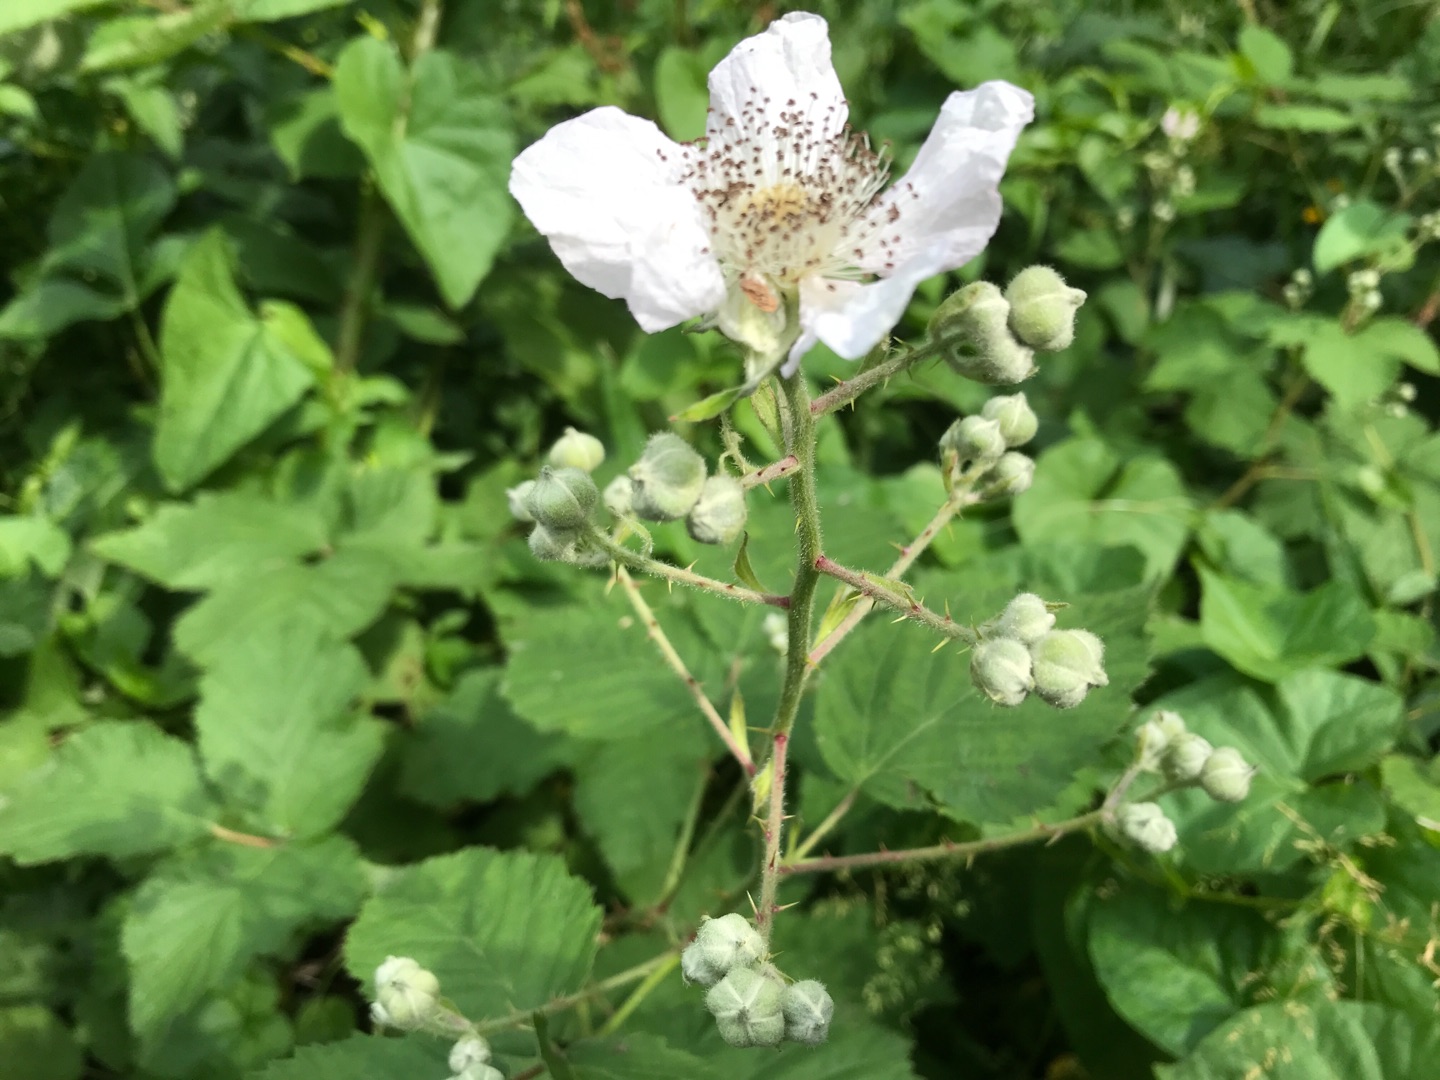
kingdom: Plantae
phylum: Tracheophyta
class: Magnoliopsida
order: Rosales
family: Rosaceae
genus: Rubus
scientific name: Rubus armeniacus
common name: Armensk brombær
